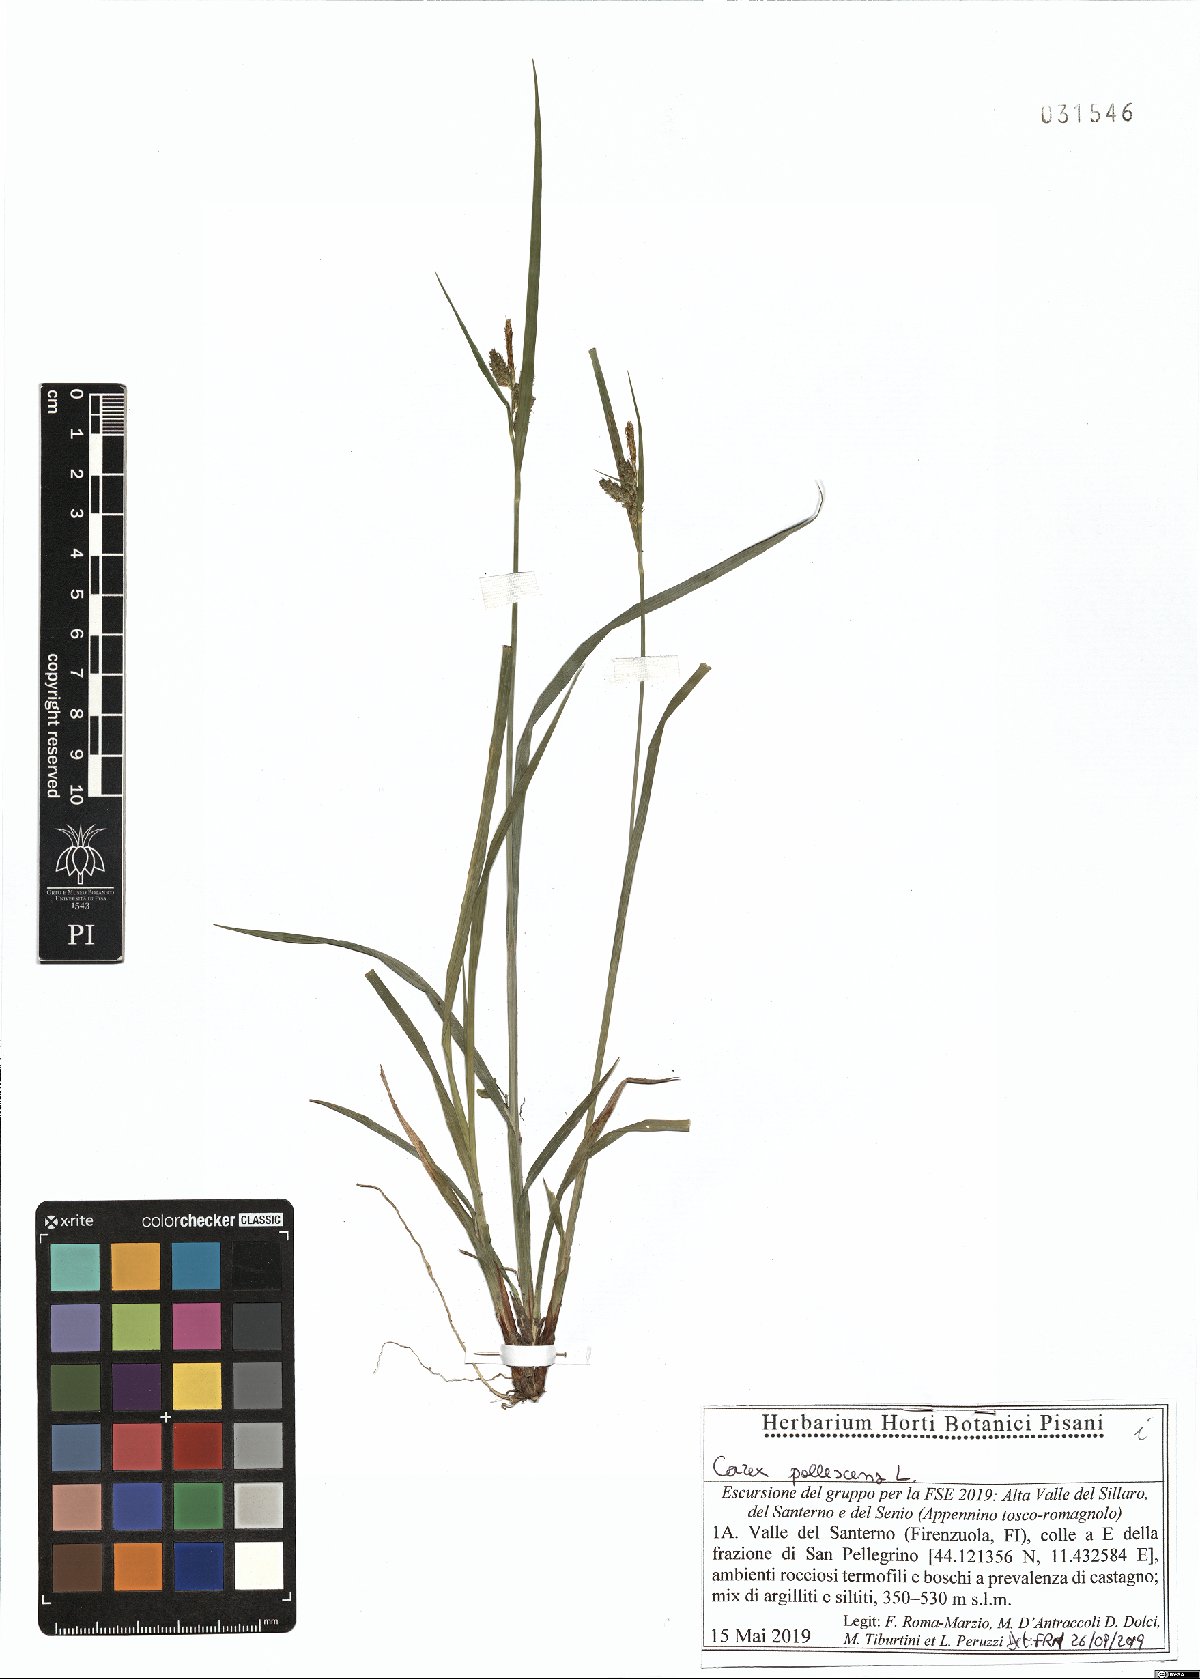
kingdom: Plantae
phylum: Tracheophyta
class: Liliopsida
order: Poales
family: Cyperaceae
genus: Carex
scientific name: Carex pallescens
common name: Pale sedge
